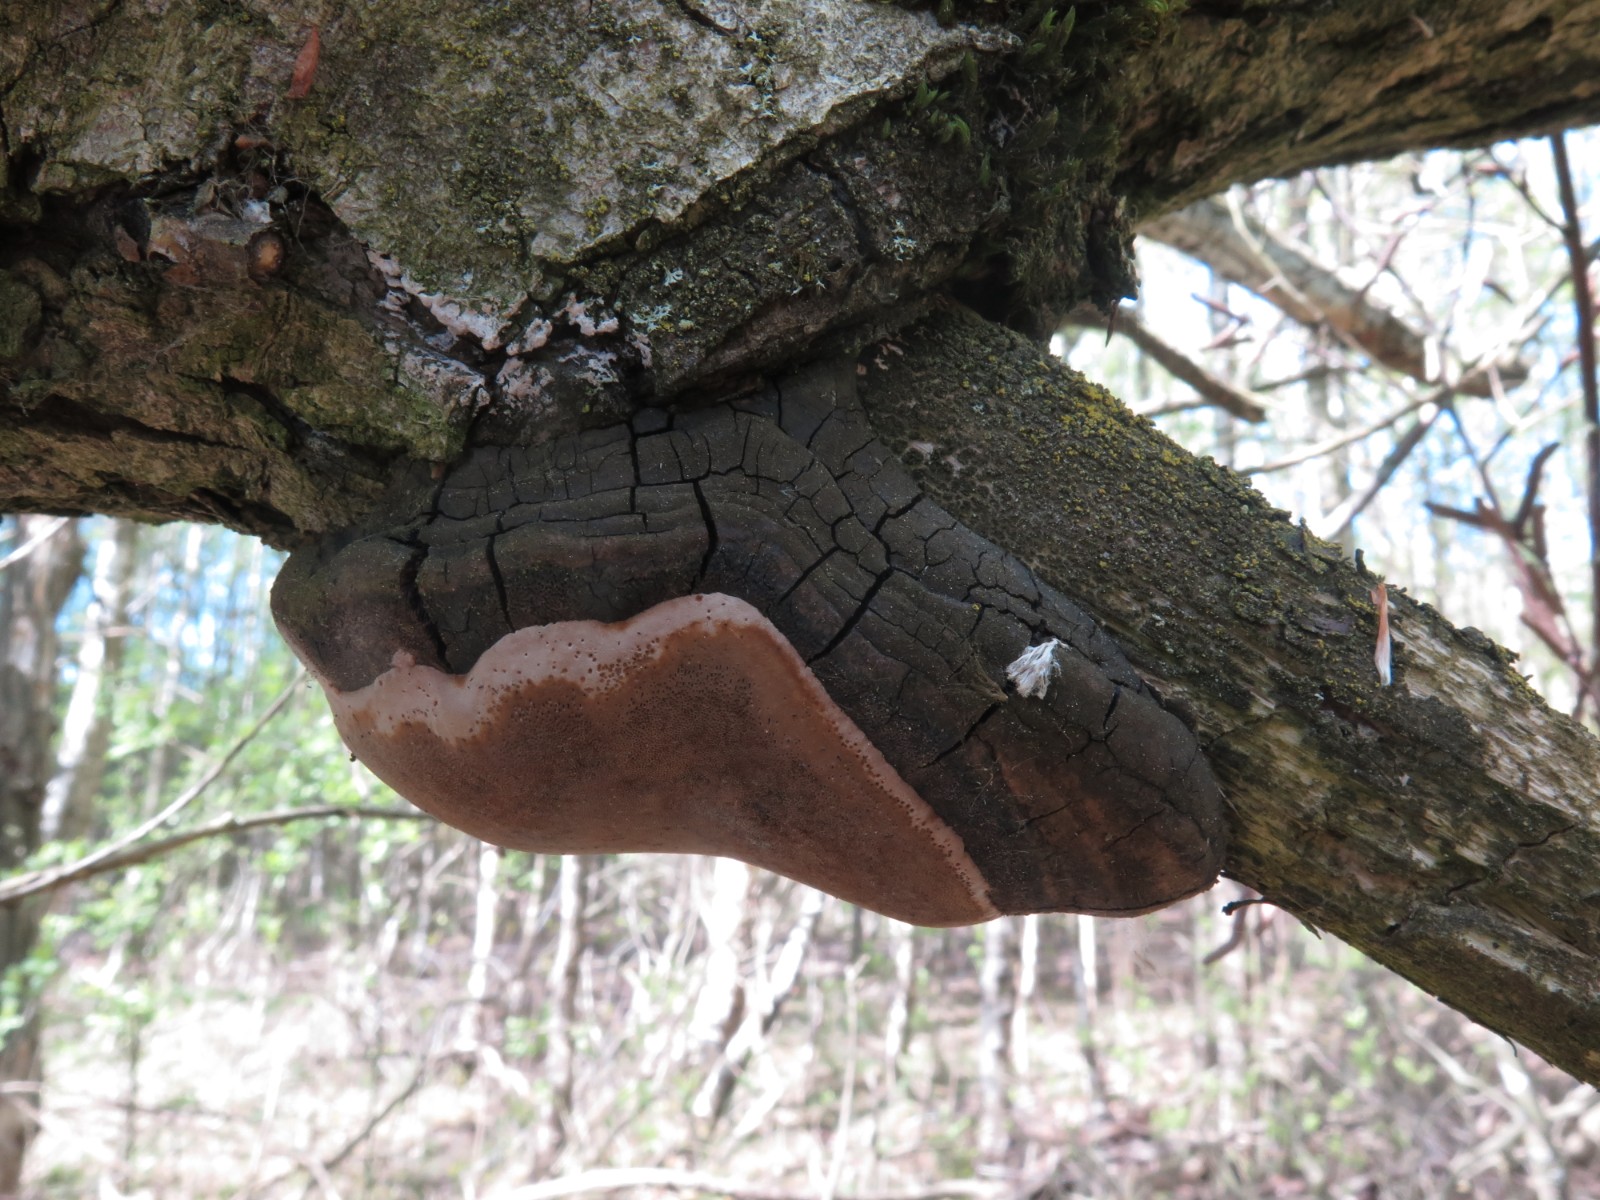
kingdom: Fungi
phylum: Basidiomycota
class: Agaricomycetes
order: Hymenochaetales
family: Hymenochaetaceae
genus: Phellinus
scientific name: Phellinus igniarius
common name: almindelig ildporesvamp
